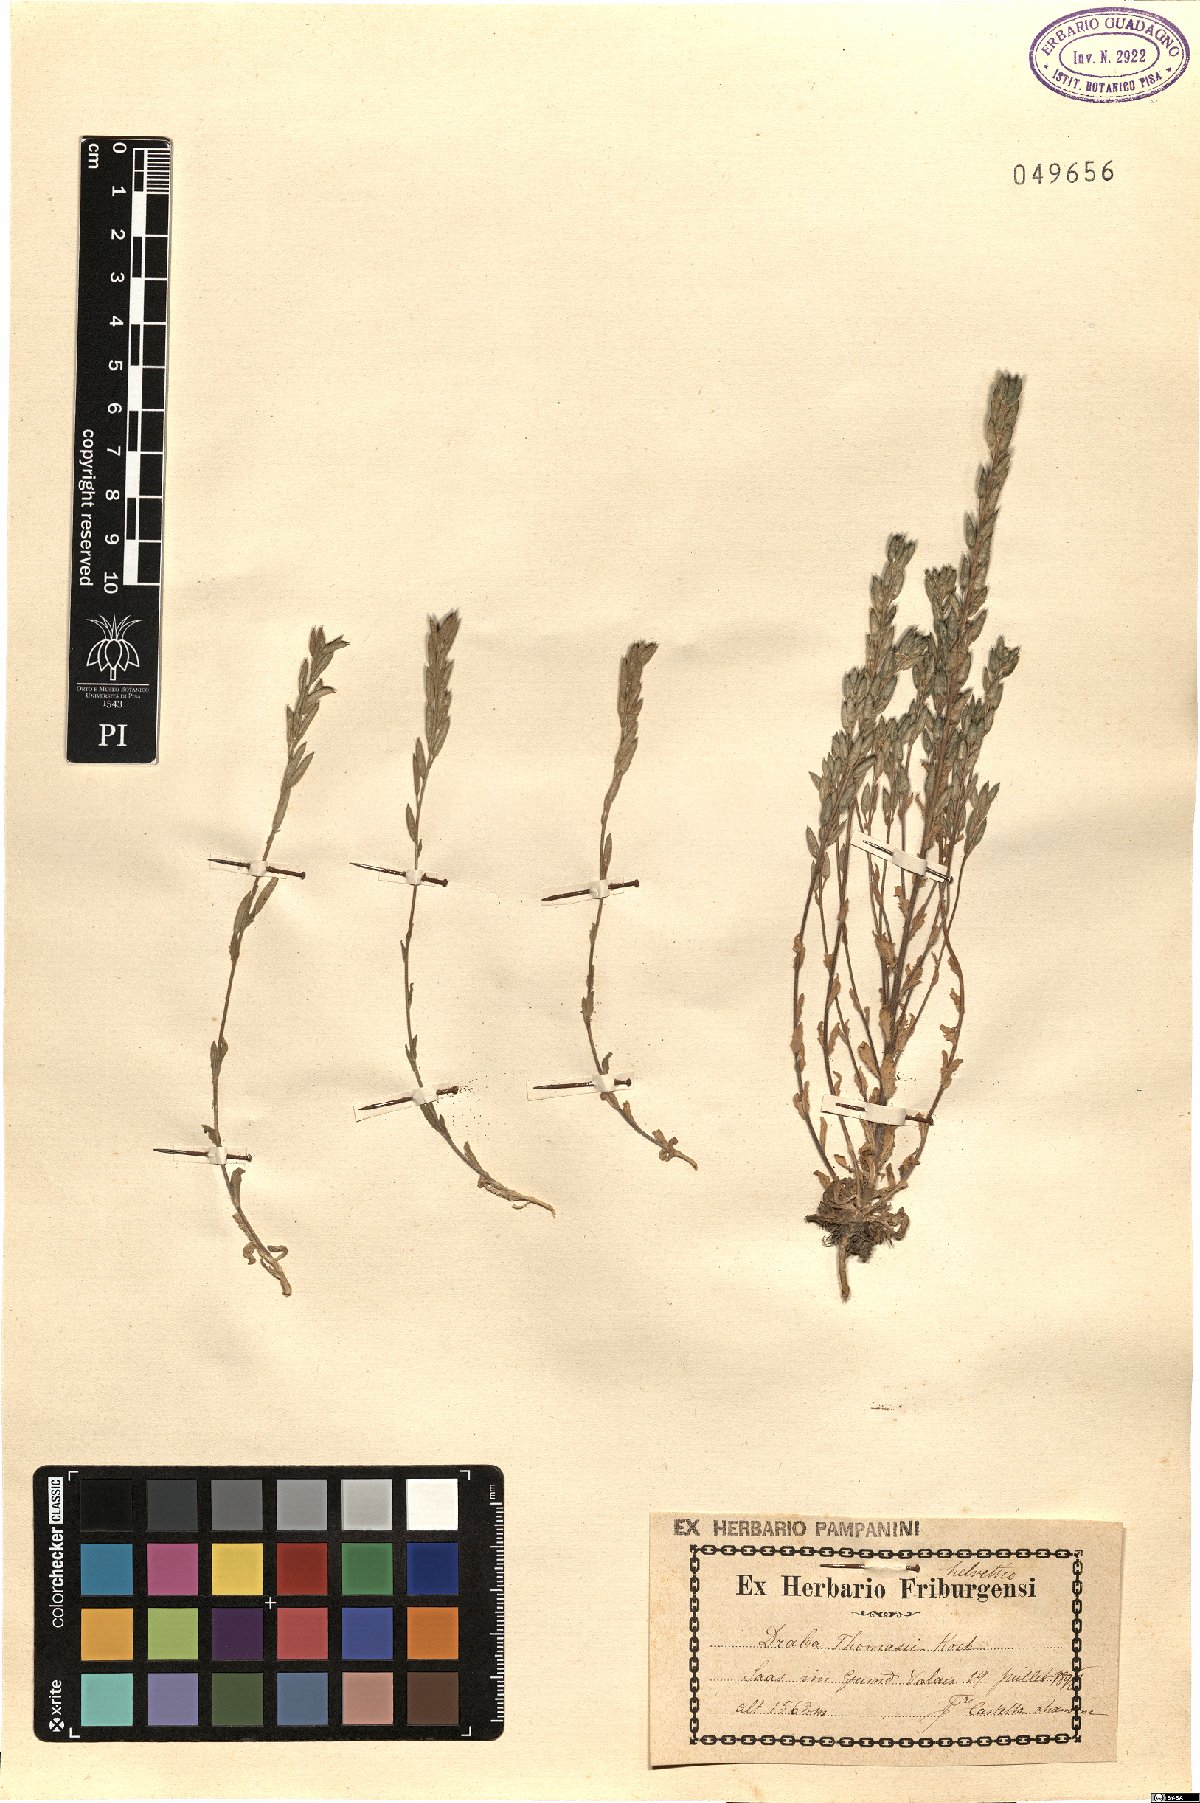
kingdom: Plantae
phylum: Tracheophyta
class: Magnoliopsida
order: Brassicales
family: Brassicaceae
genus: Draba
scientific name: Draba thomasii
